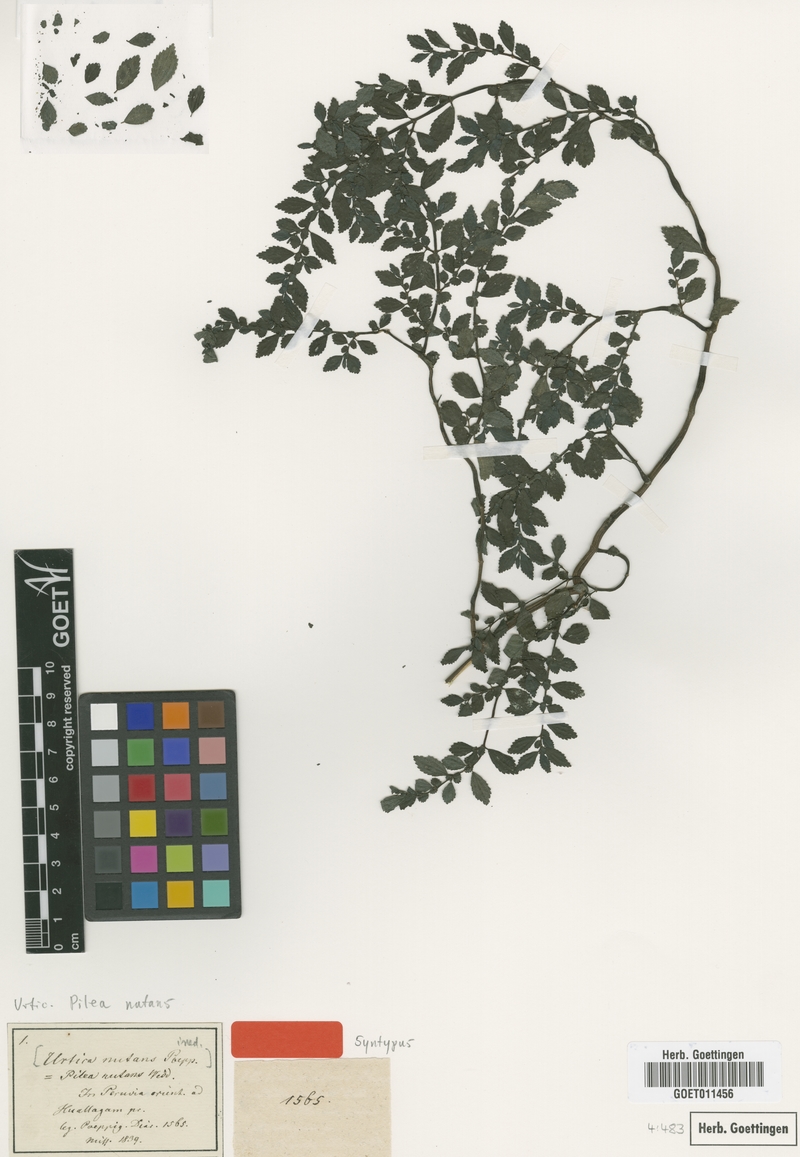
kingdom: Plantae
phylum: Tracheophyta
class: Magnoliopsida
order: Rosales
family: Urticaceae
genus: Pilea
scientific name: Pilea nutans
